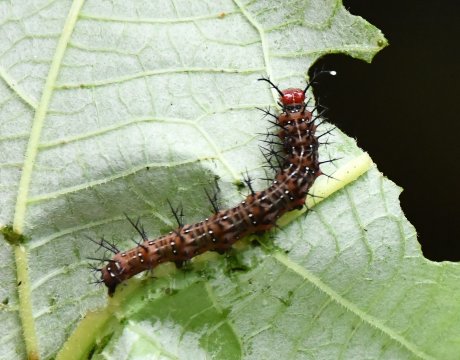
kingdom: Animalia
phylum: Arthropoda
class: Insecta
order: Lepidoptera
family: Nymphalidae
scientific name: Nymphalidae
